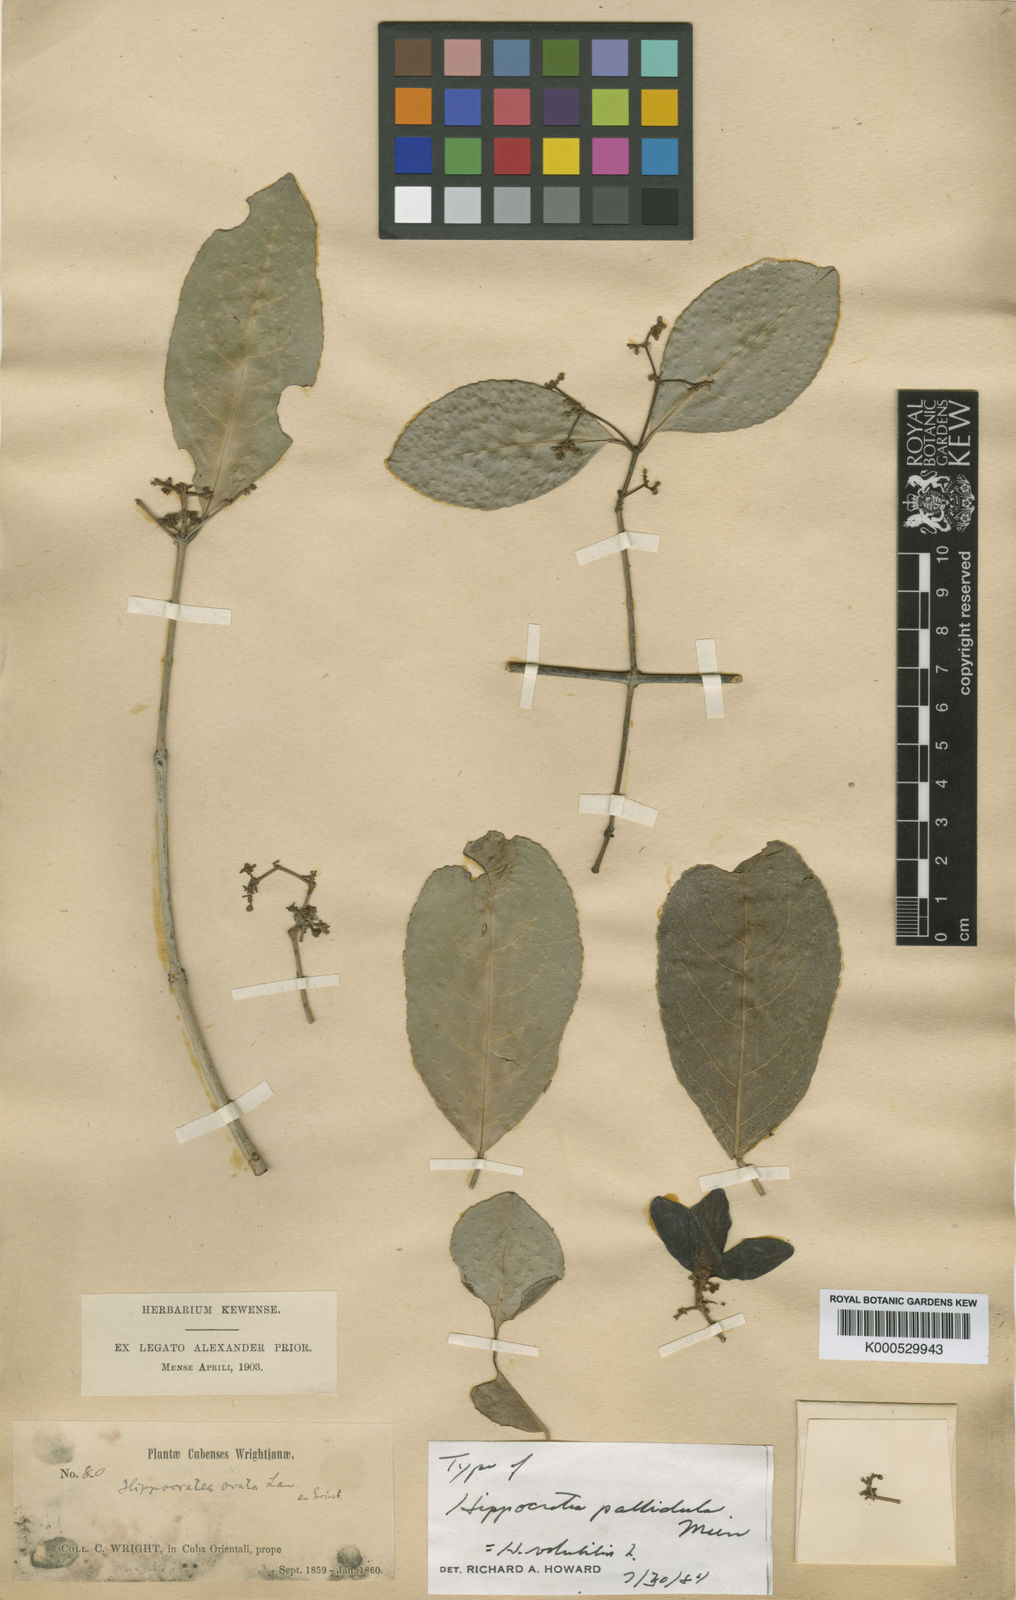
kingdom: Plantae
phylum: Tracheophyta
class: Magnoliopsida
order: Celastrales
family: Celastraceae
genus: Hippocratea
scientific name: Hippocratea volubilis
